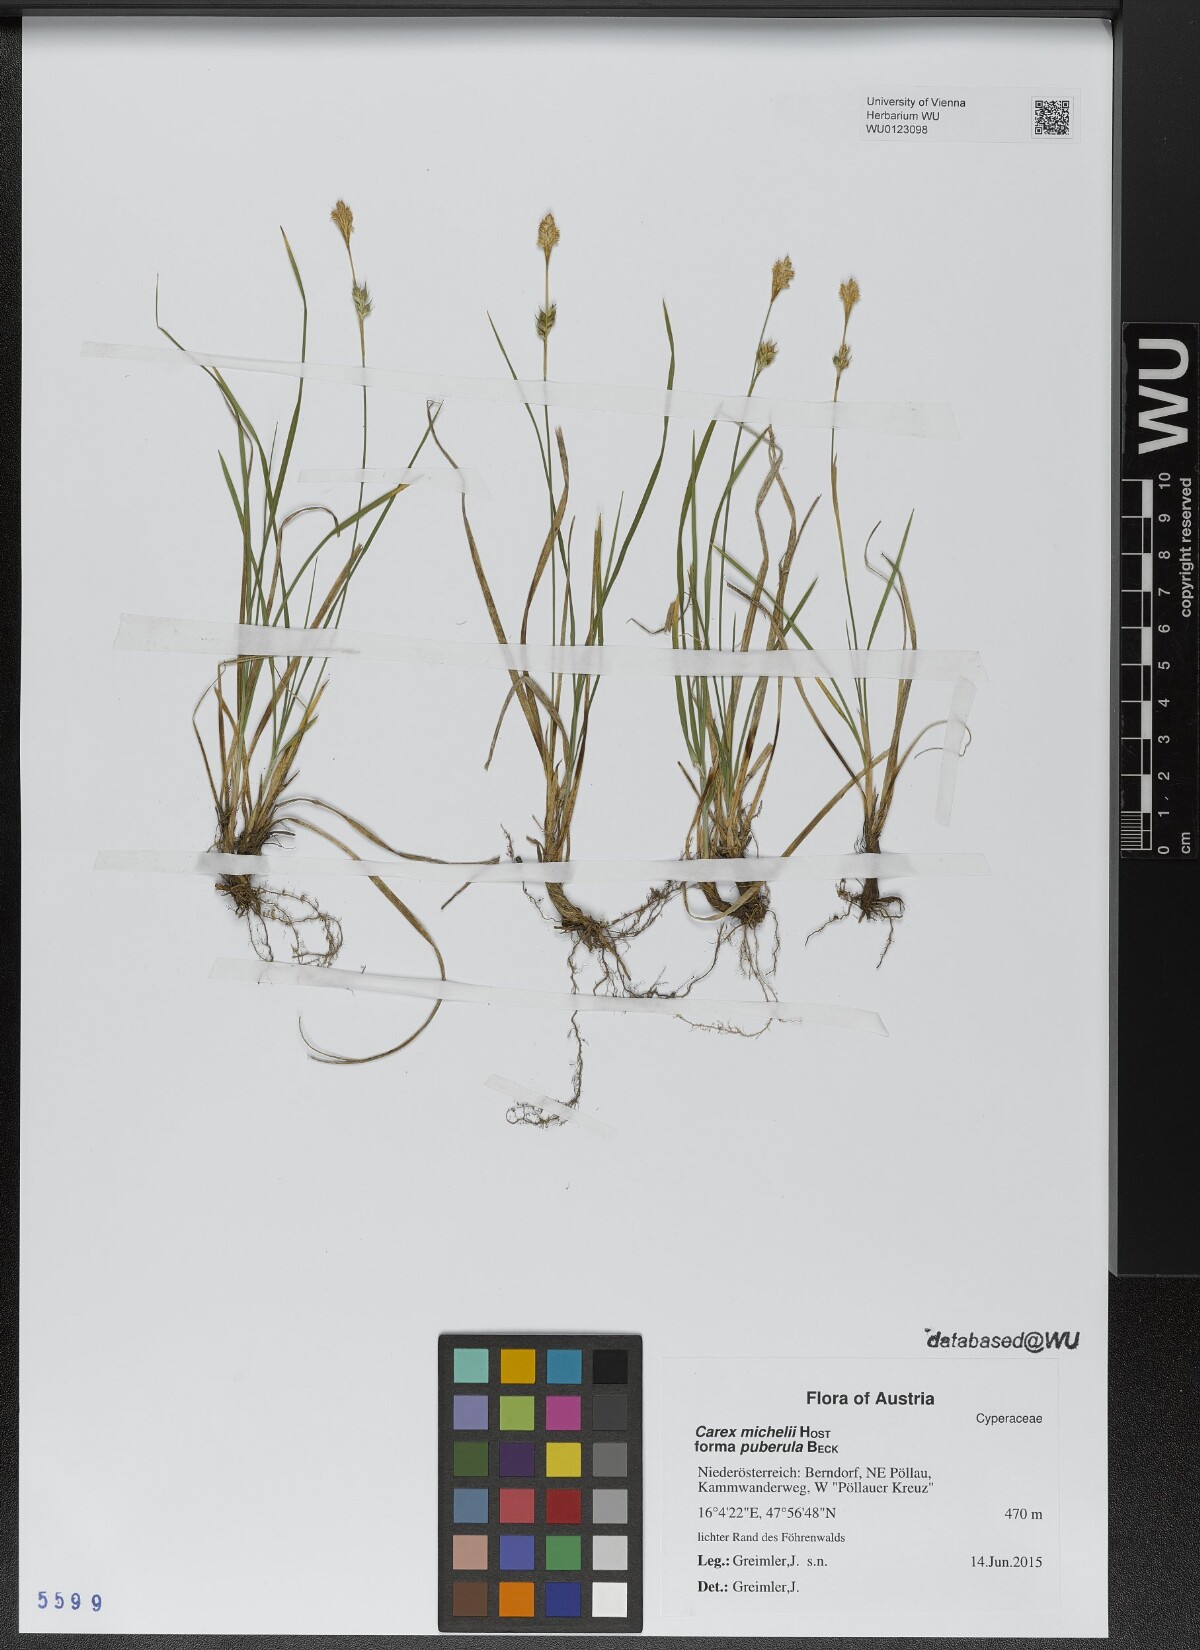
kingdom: Plantae
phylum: Tracheophyta
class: Liliopsida
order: Poales
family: Cyperaceae
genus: Carex
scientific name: Carex michelii
